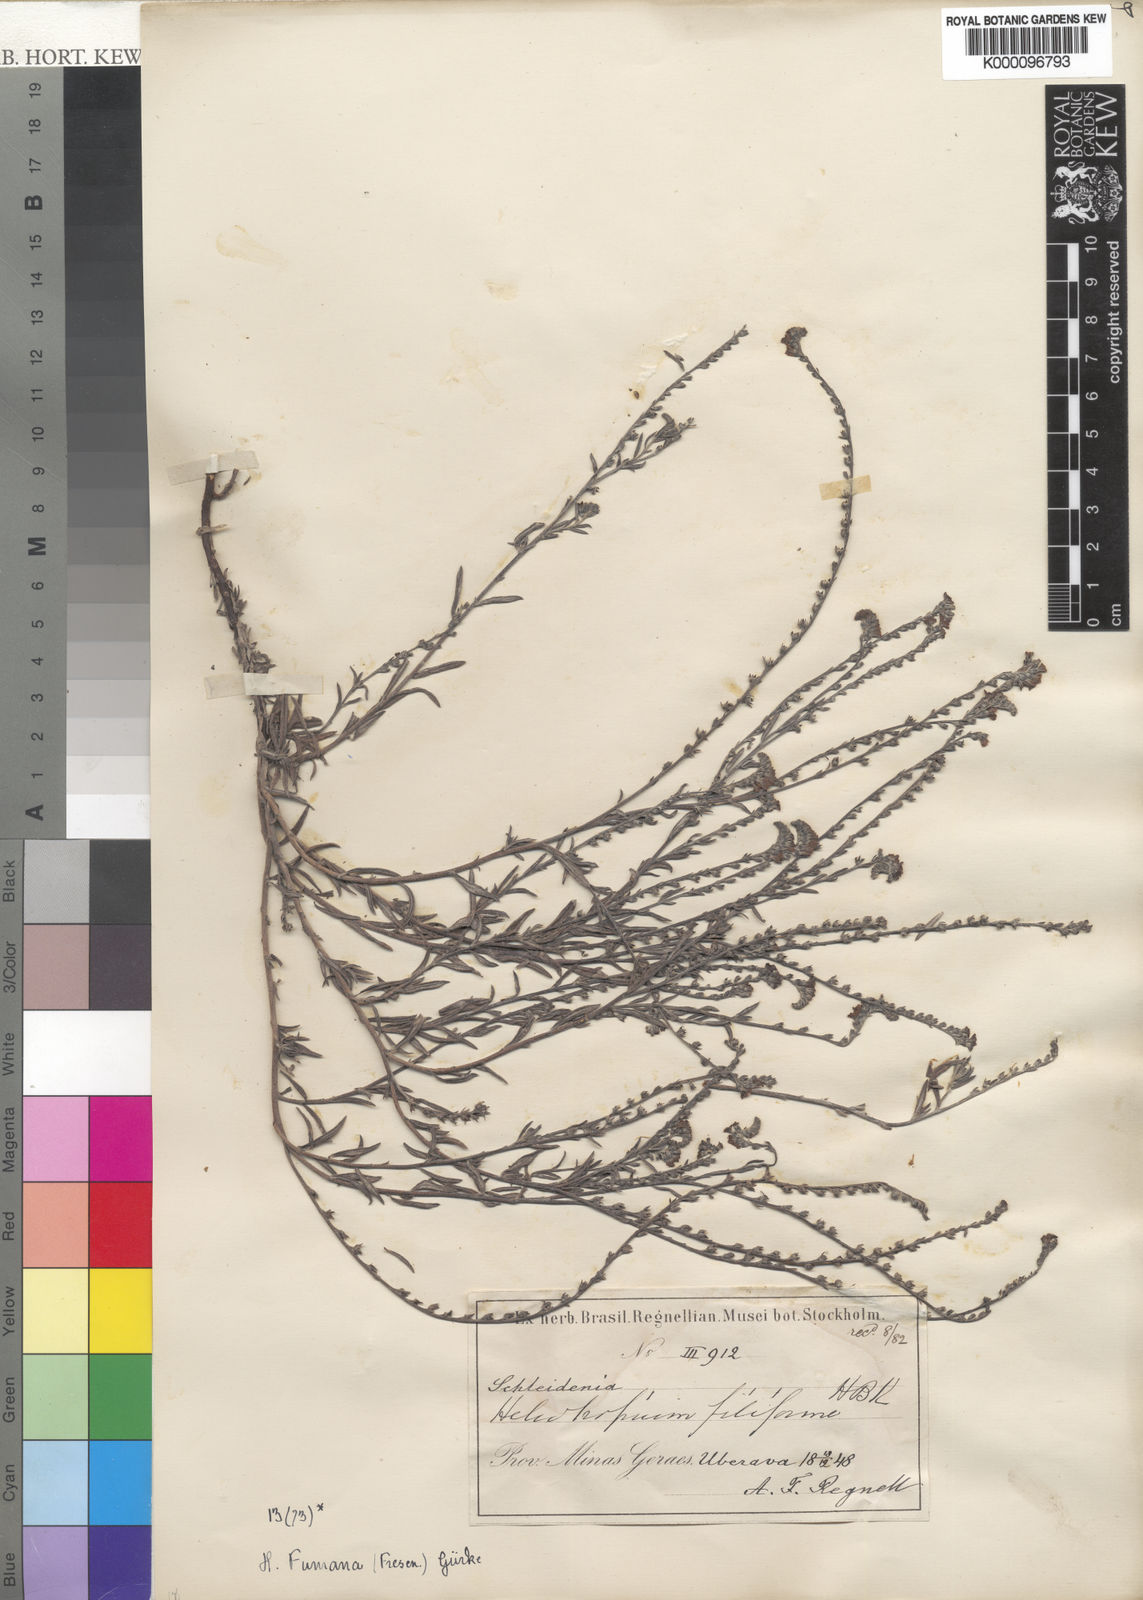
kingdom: Plantae
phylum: Tracheophyta
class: Magnoliopsida
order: Boraginales
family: Heliotropiaceae
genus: Heliotropium
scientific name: Heliotropium
